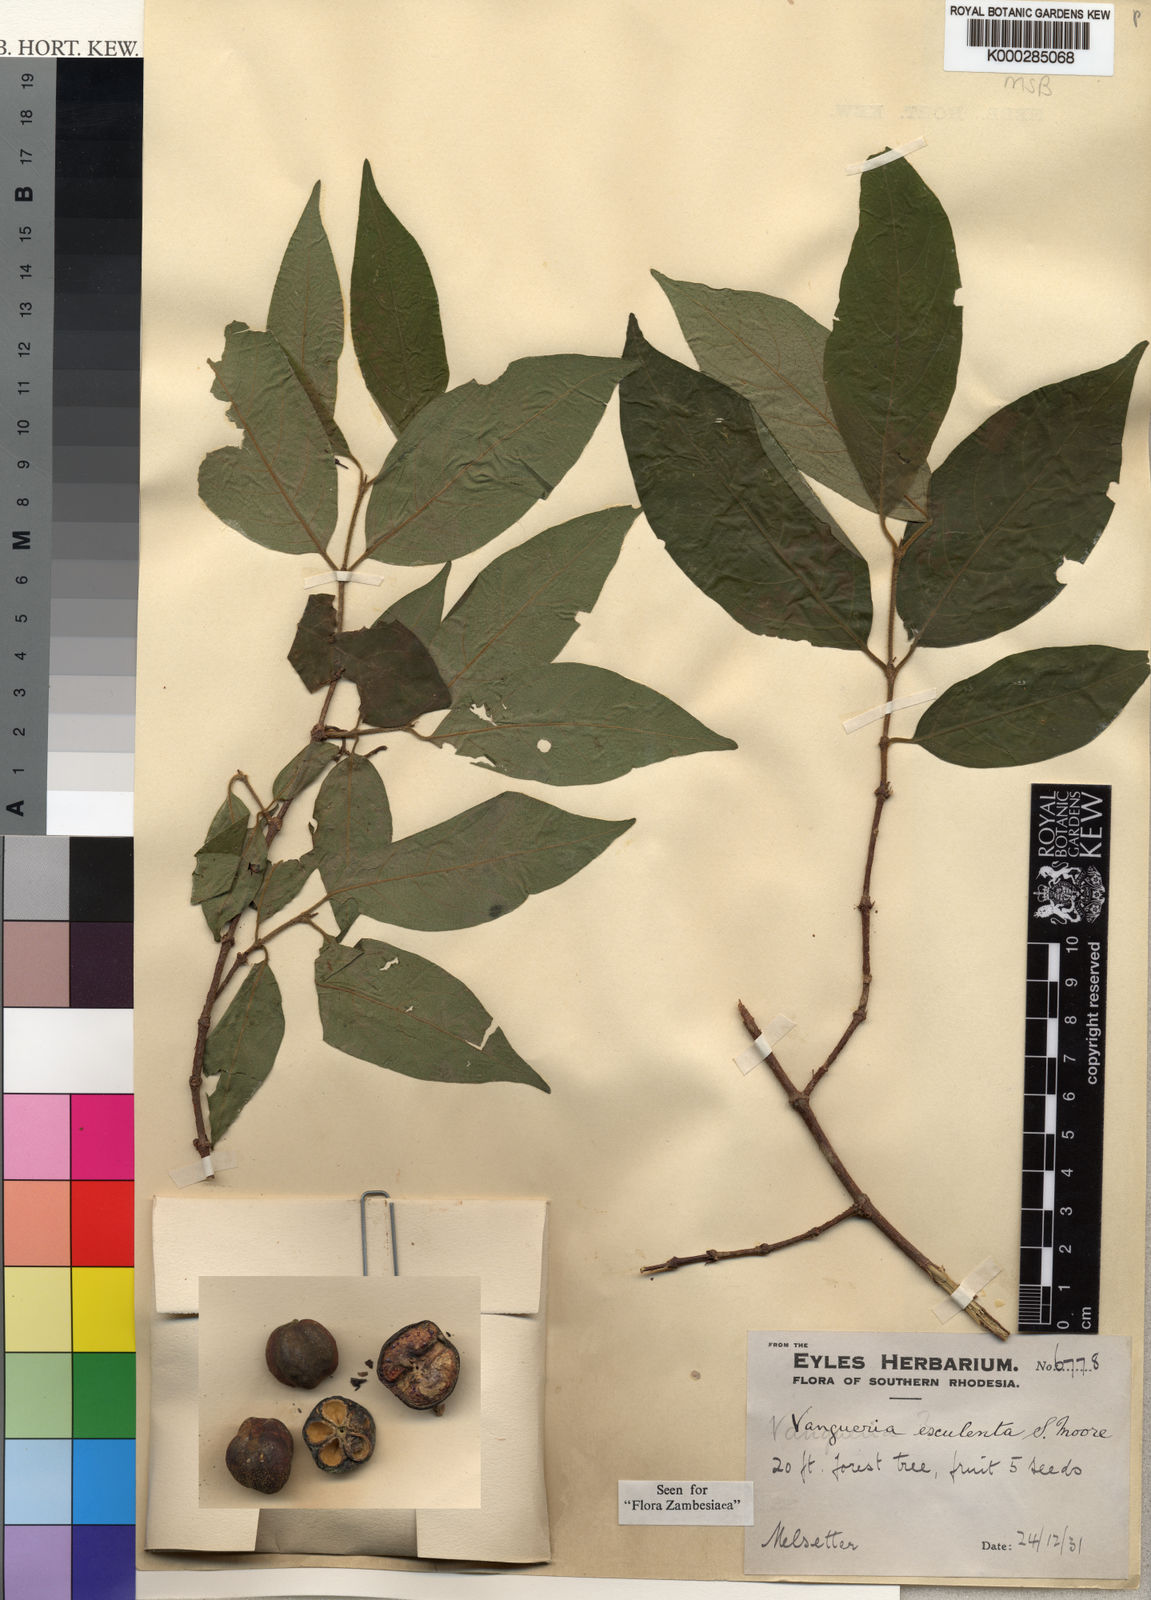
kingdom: Plantae
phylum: Tracheophyta
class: Magnoliopsida
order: Gentianales
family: Rubiaceae
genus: Vangueria
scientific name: Vangueria esculenta
